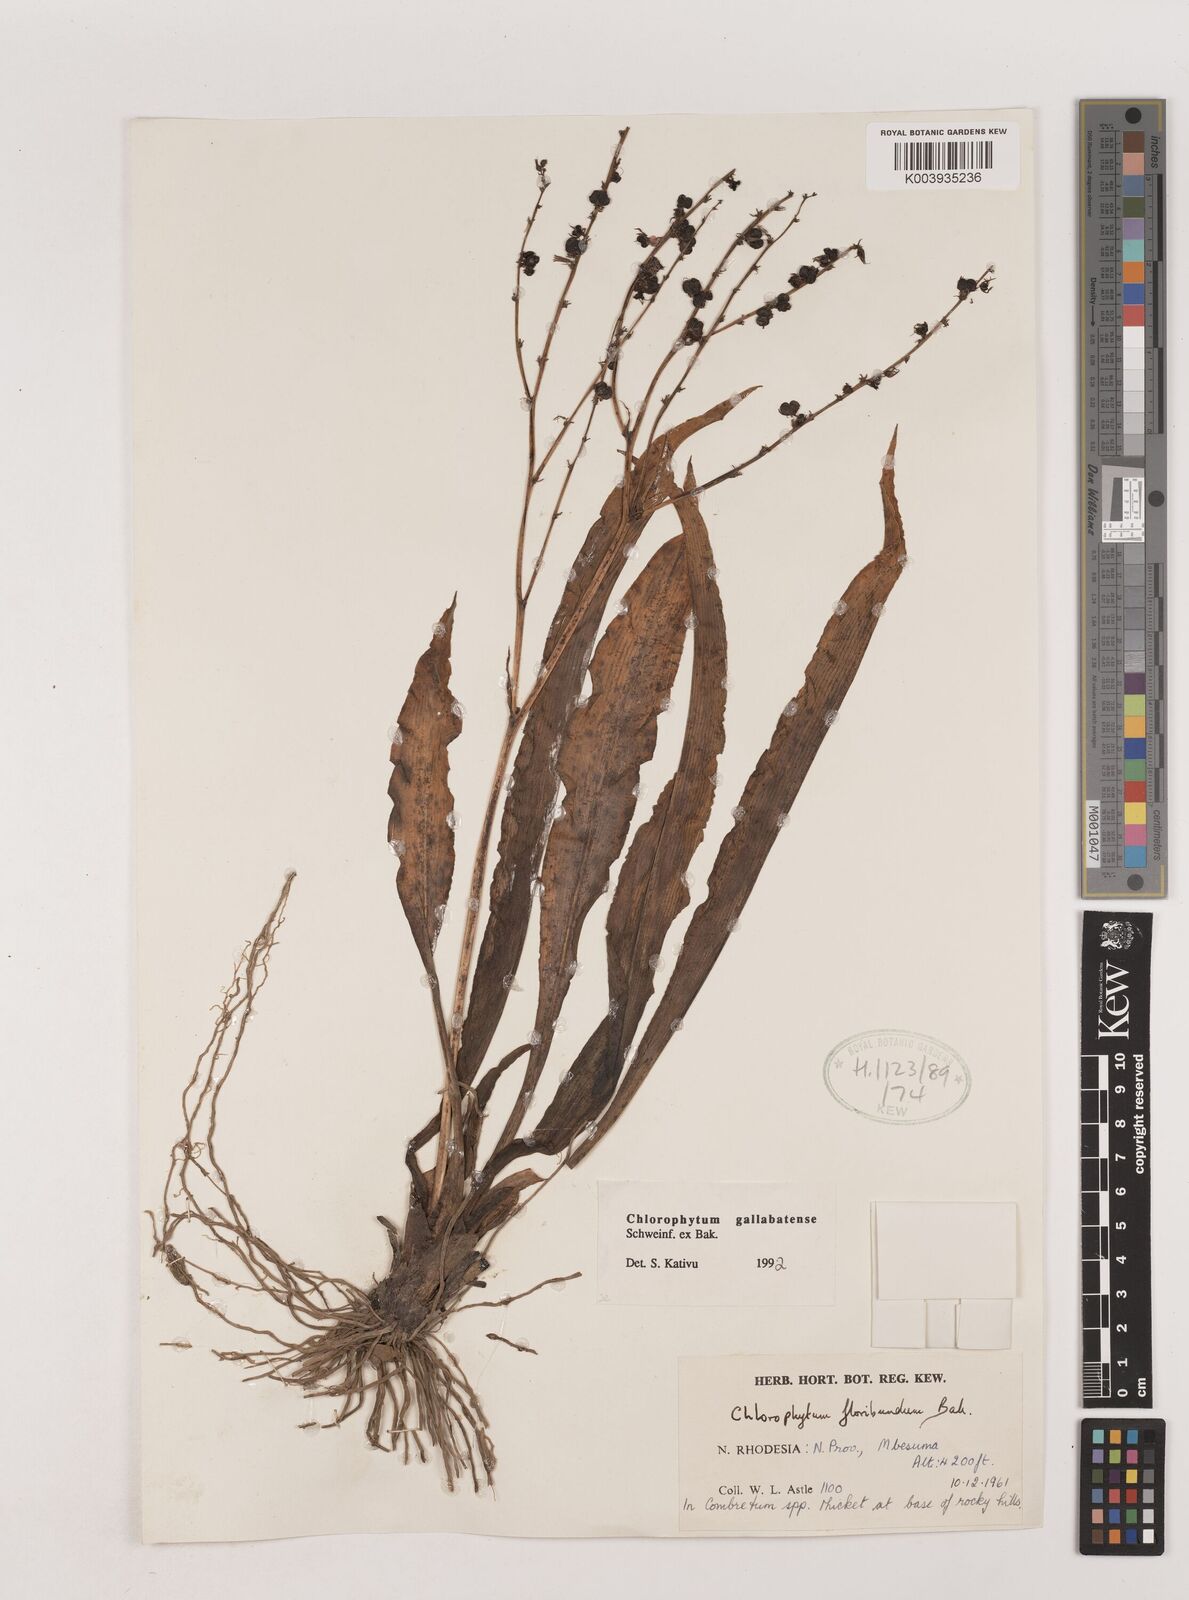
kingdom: Plantae
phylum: Tracheophyta
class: Liliopsida
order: Asparagales
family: Asparagaceae
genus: Chlorophytum
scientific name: Chlorophytum gallabatense
